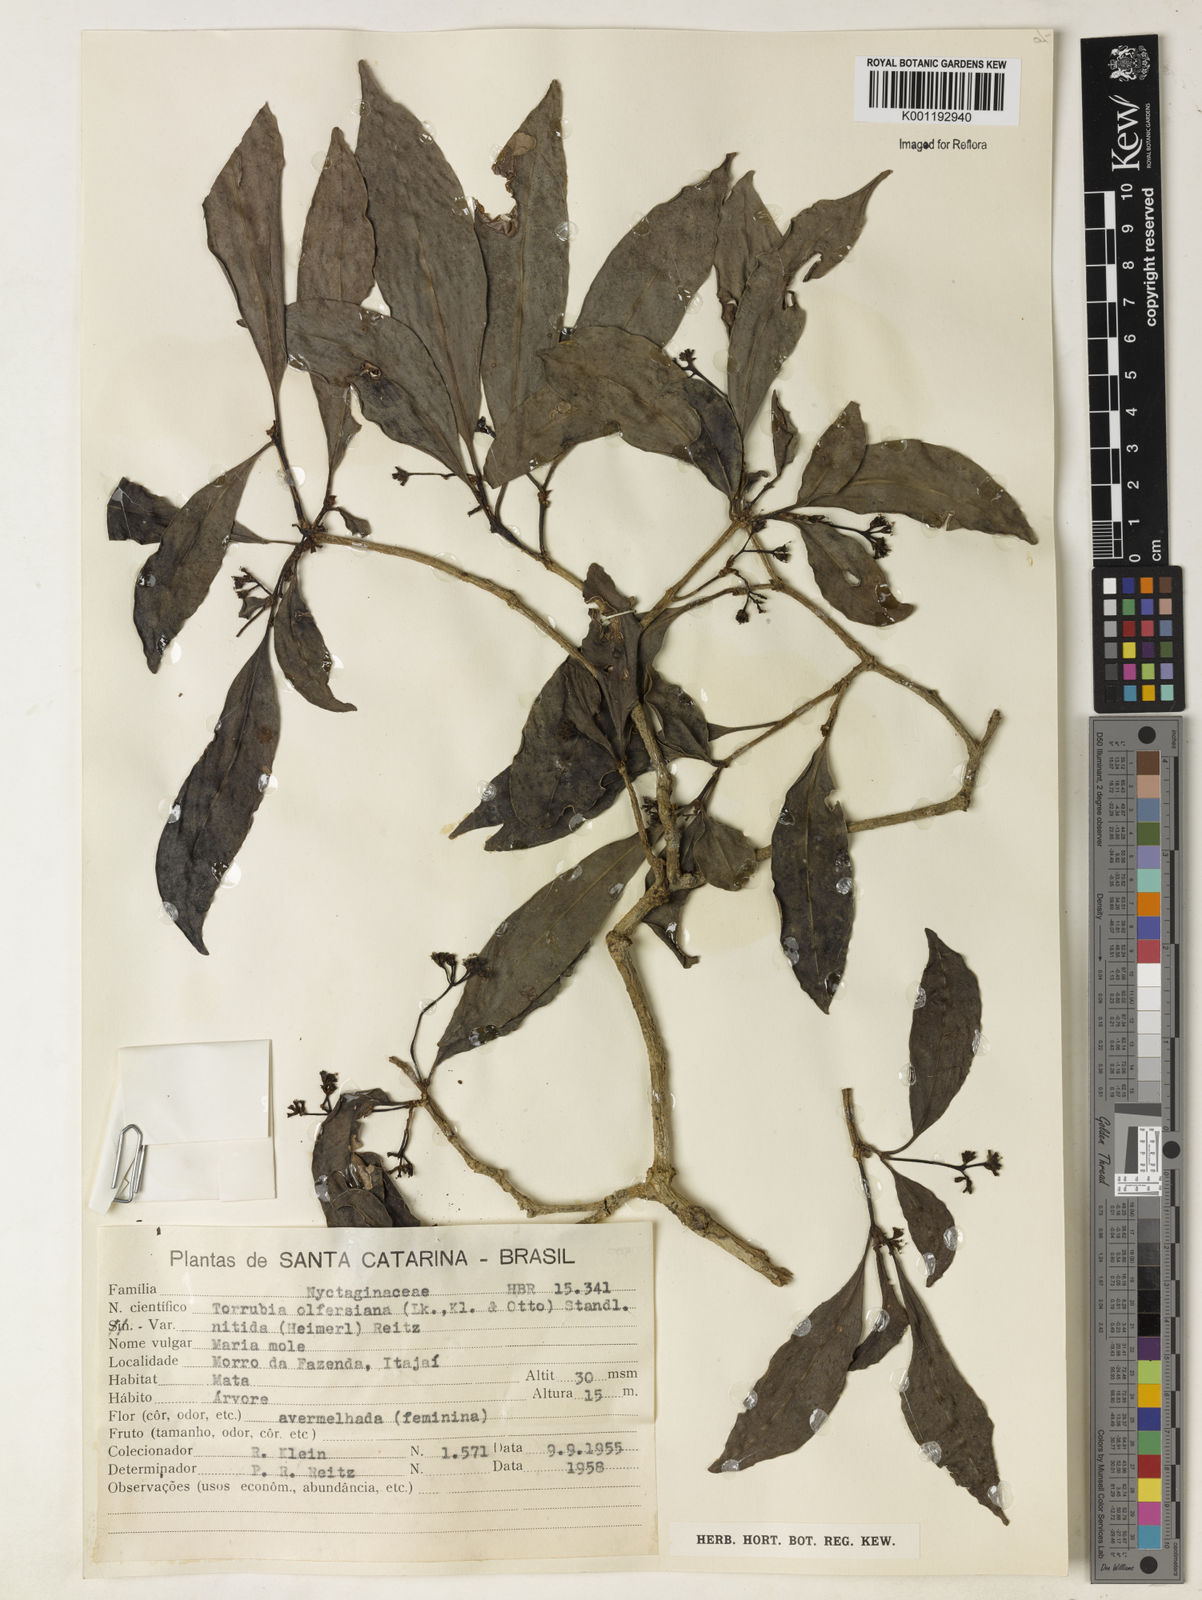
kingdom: Plantae
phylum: Tracheophyta
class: Magnoliopsida
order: Caryophyllales
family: Nyctaginaceae
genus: Guapira
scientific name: Guapira
